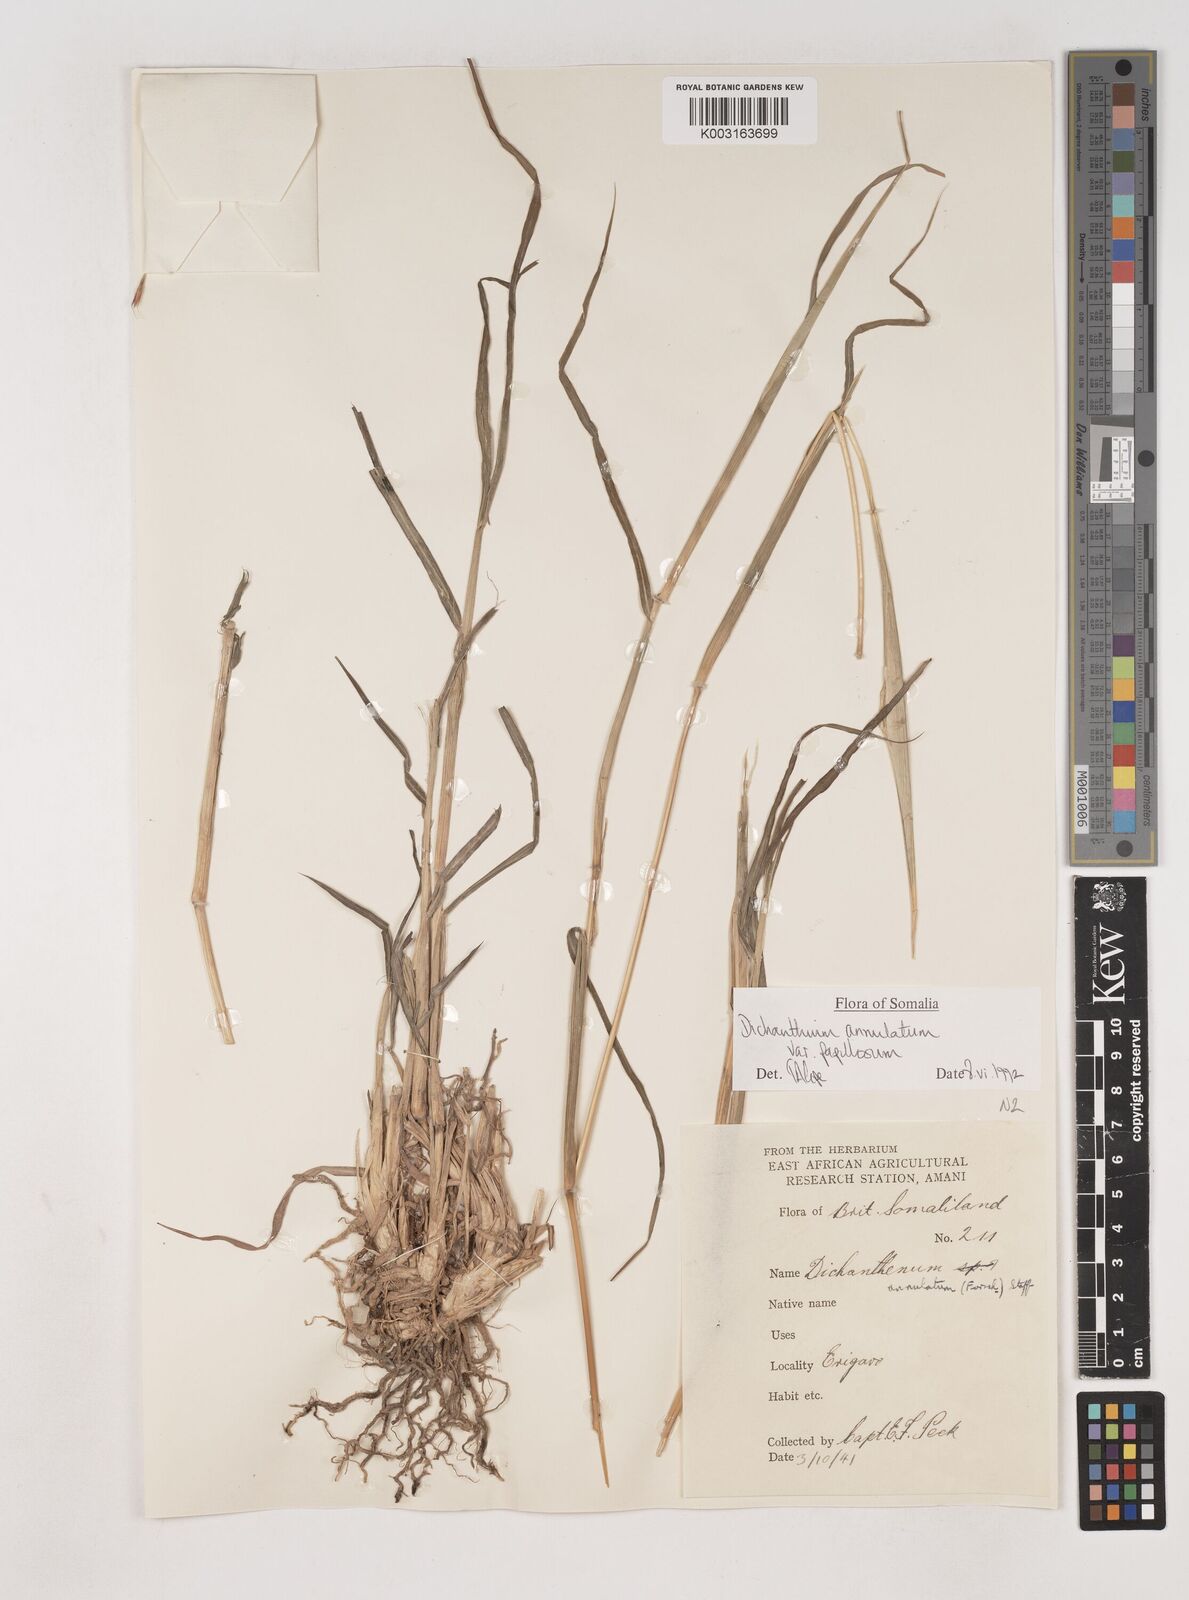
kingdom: Plantae
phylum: Tracheophyta
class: Liliopsida
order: Poales
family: Poaceae
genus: Dichanthium
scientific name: Dichanthium annulatum
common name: Kleberg's bluestem
